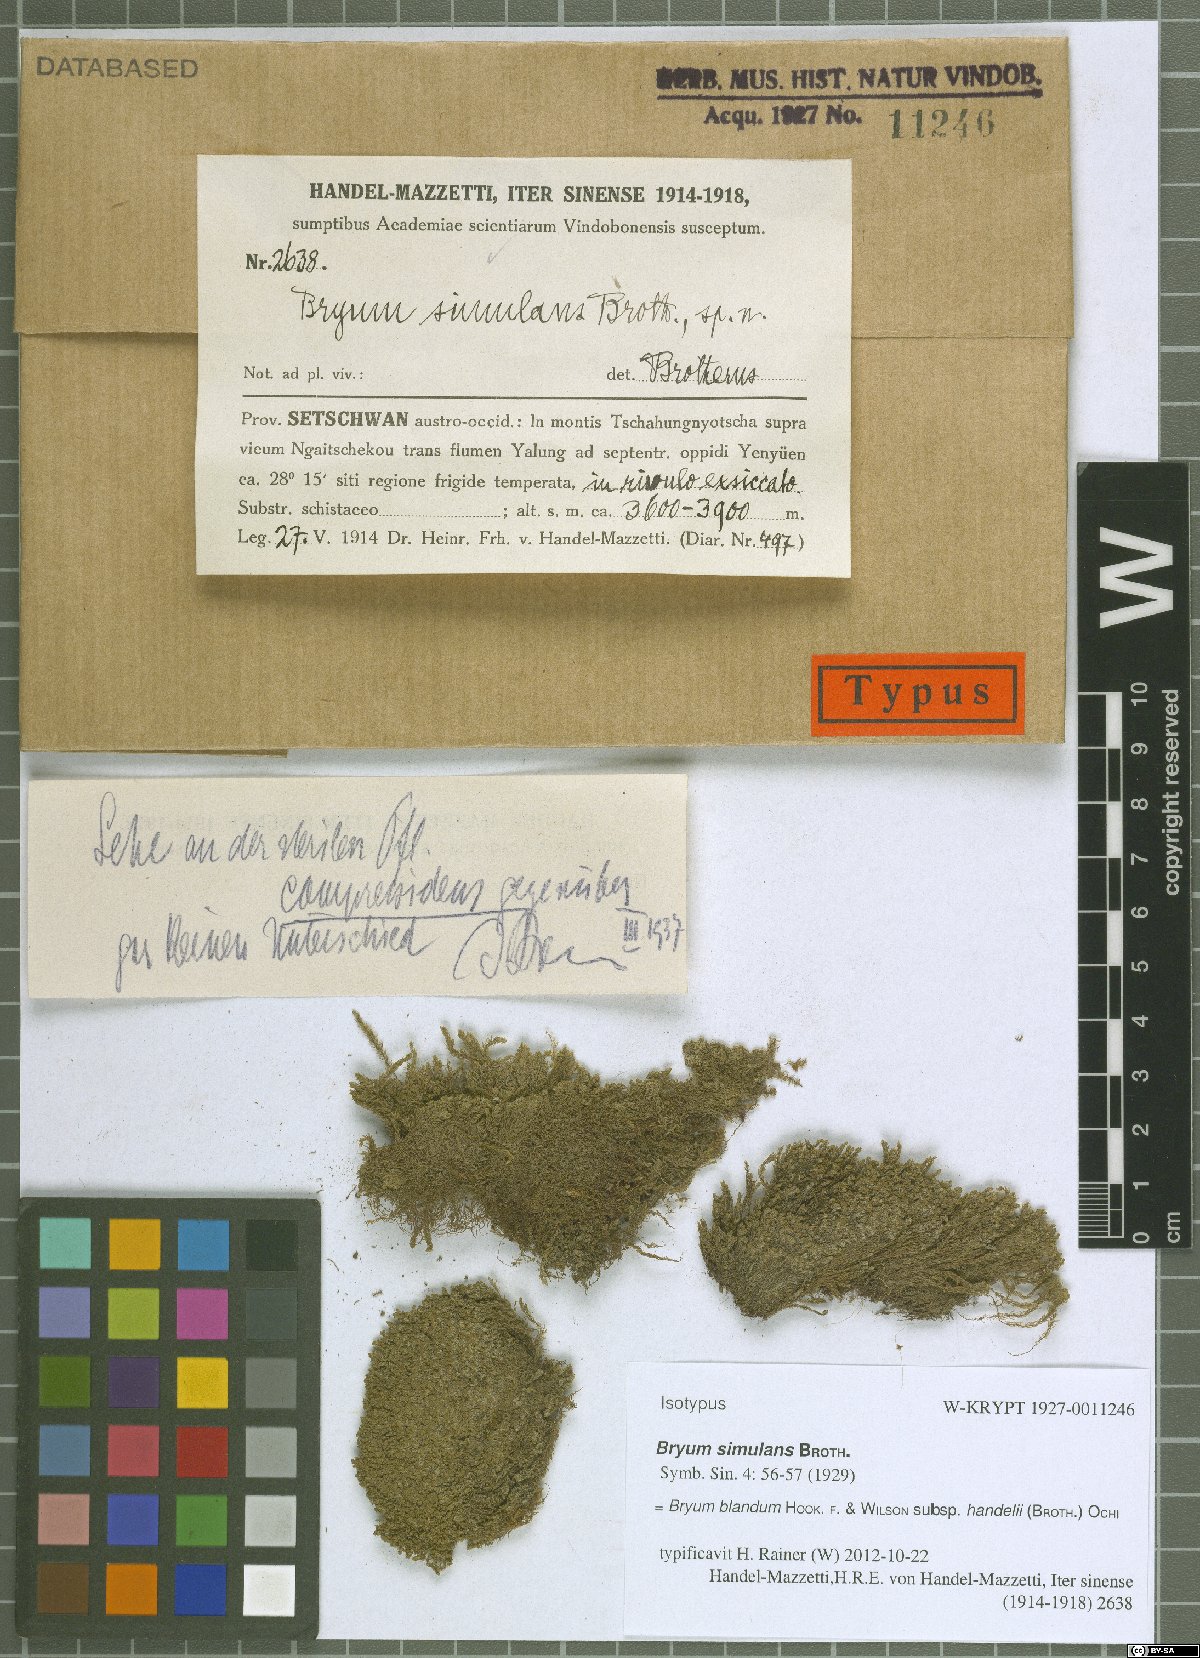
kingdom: Plantae
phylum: Bryophyta
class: Bryopsida
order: Bryales
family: Bryaceae
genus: Ochiobryum
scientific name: Ochiobryum handelii
